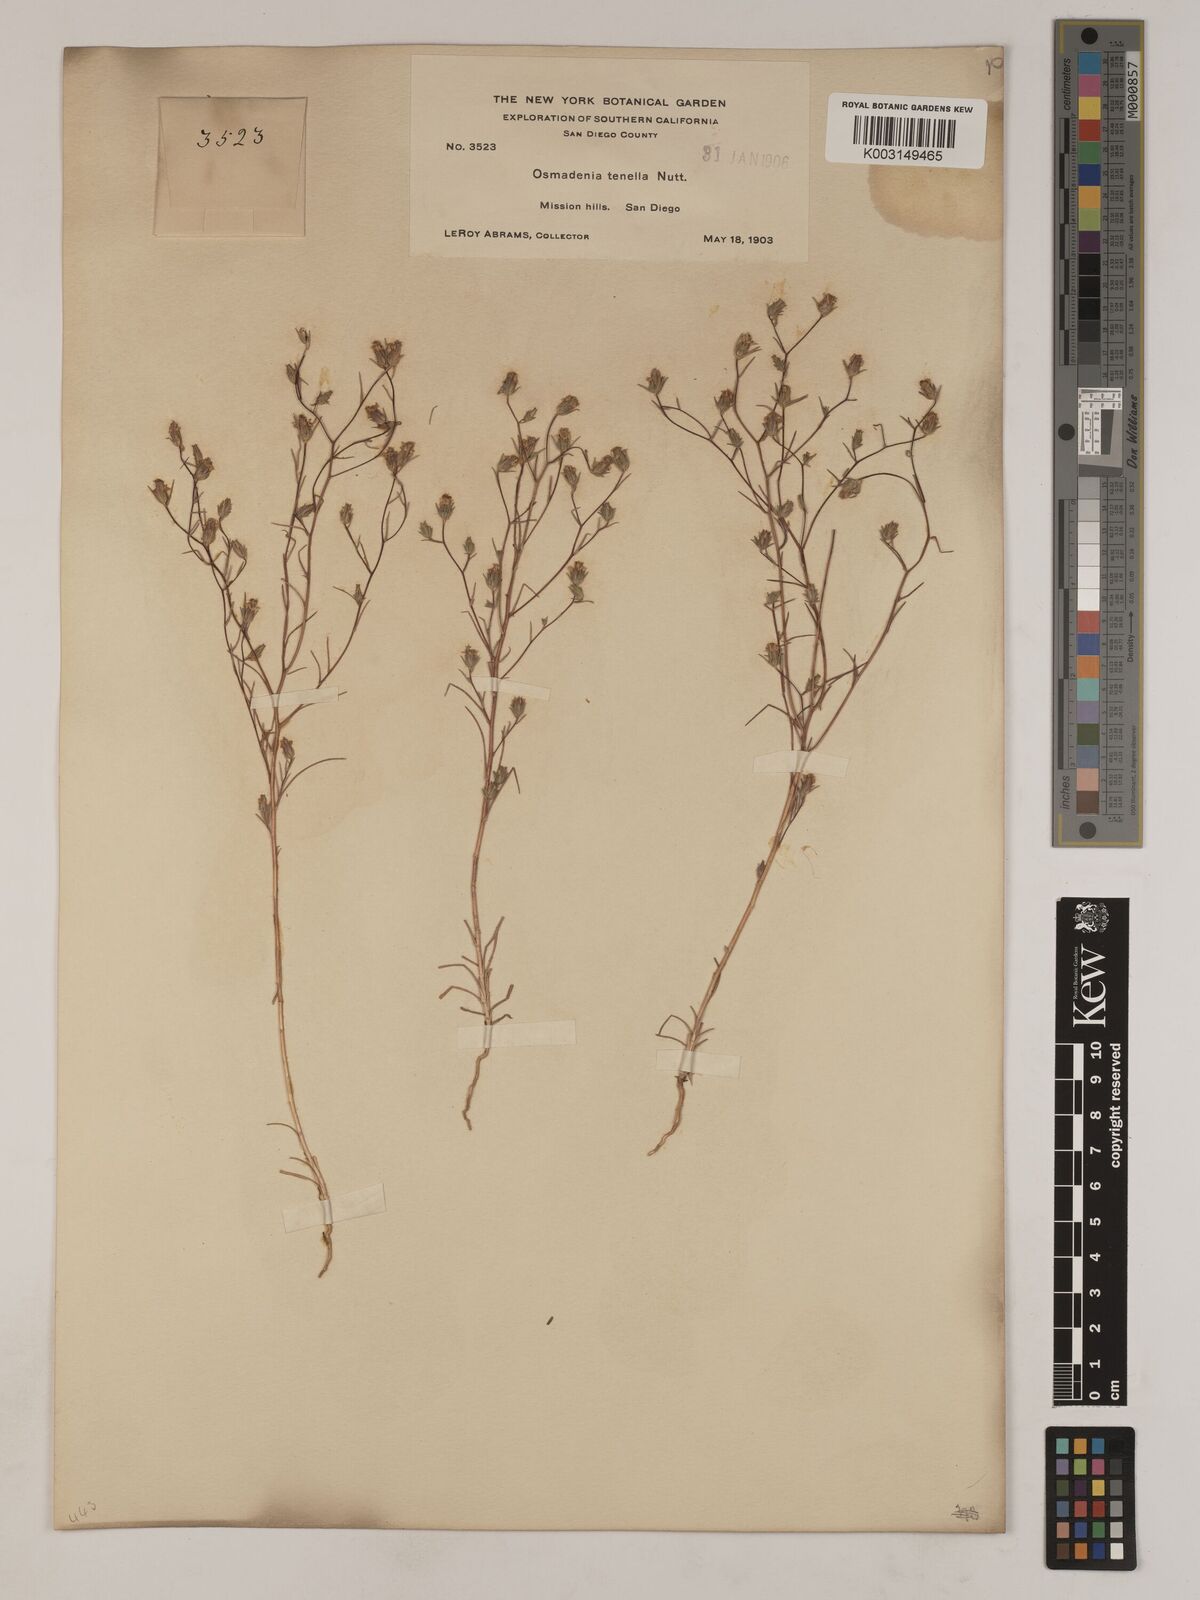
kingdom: Plantae
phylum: Tracheophyta
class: Magnoliopsida
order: Asterales
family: Asteraceae
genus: Osmadenia
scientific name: Osmadenia tenella
